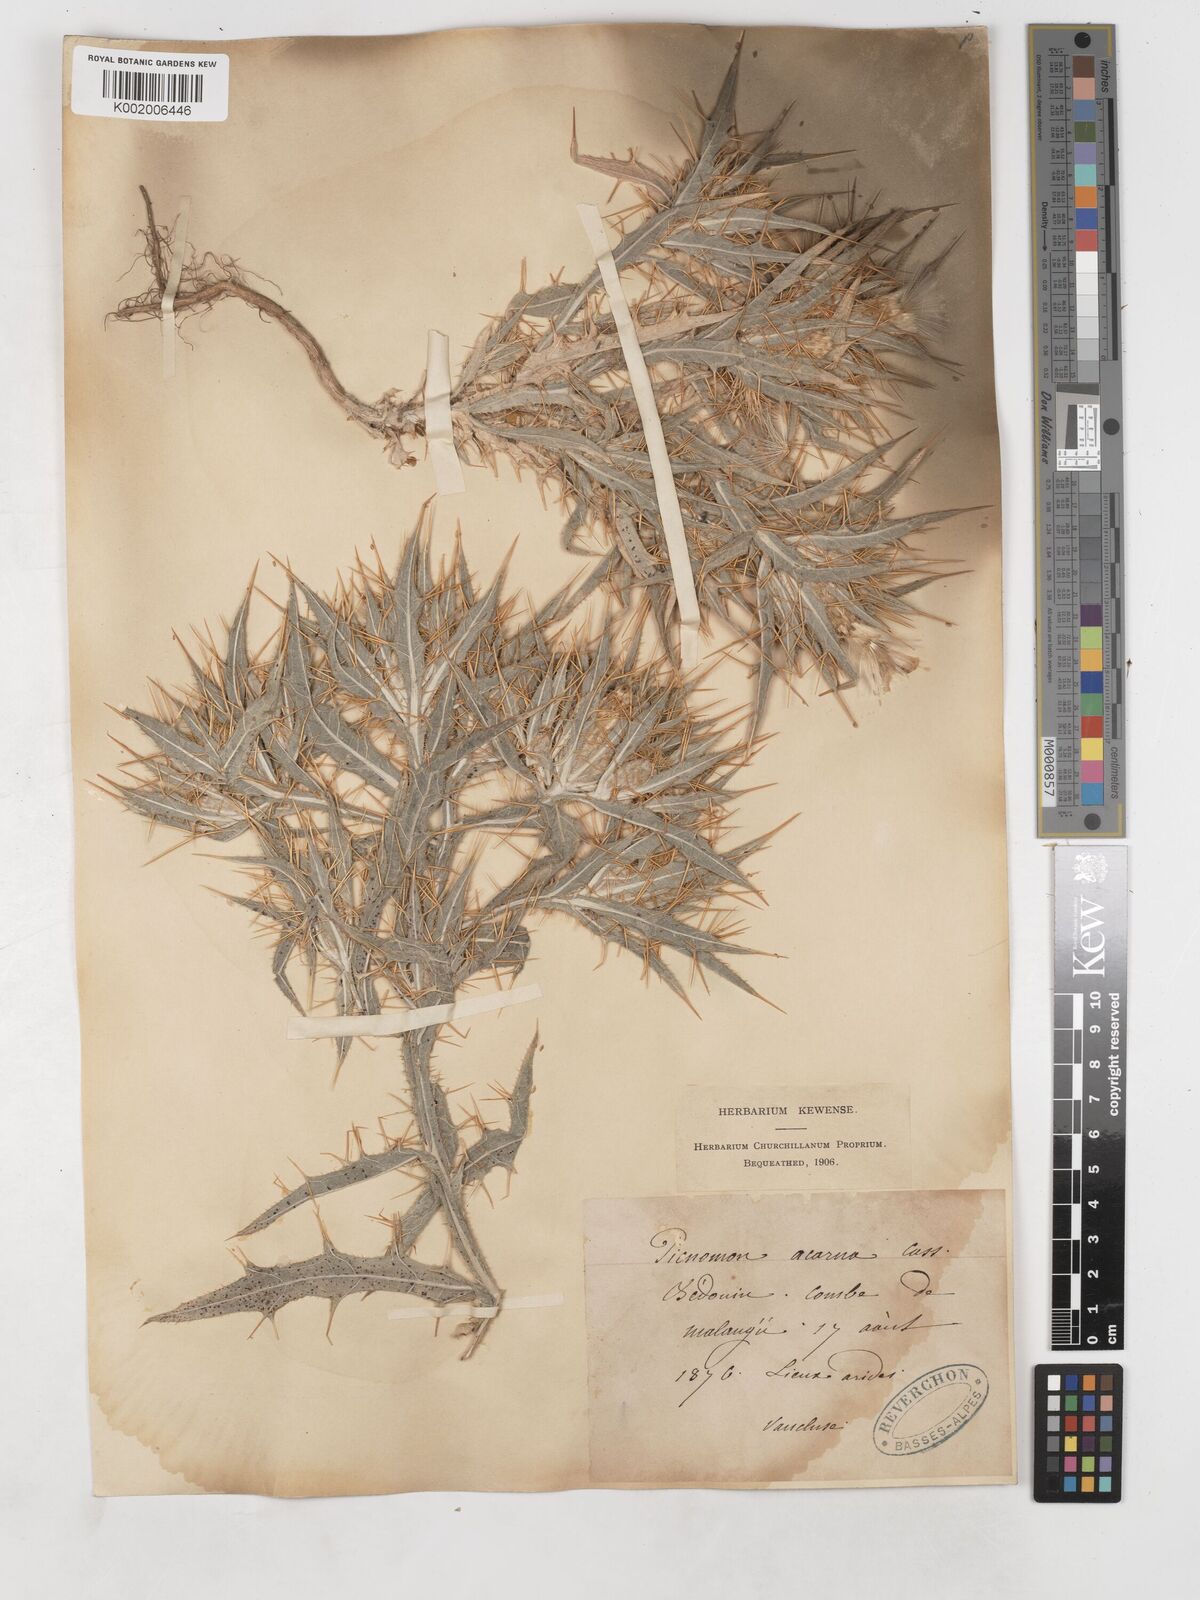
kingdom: Plantae
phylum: Tracheophyta
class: Magnoliopsida
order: Asterales
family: Asteraceae
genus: Picnomon
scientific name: Picnomon acarna
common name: Soldier thistle
